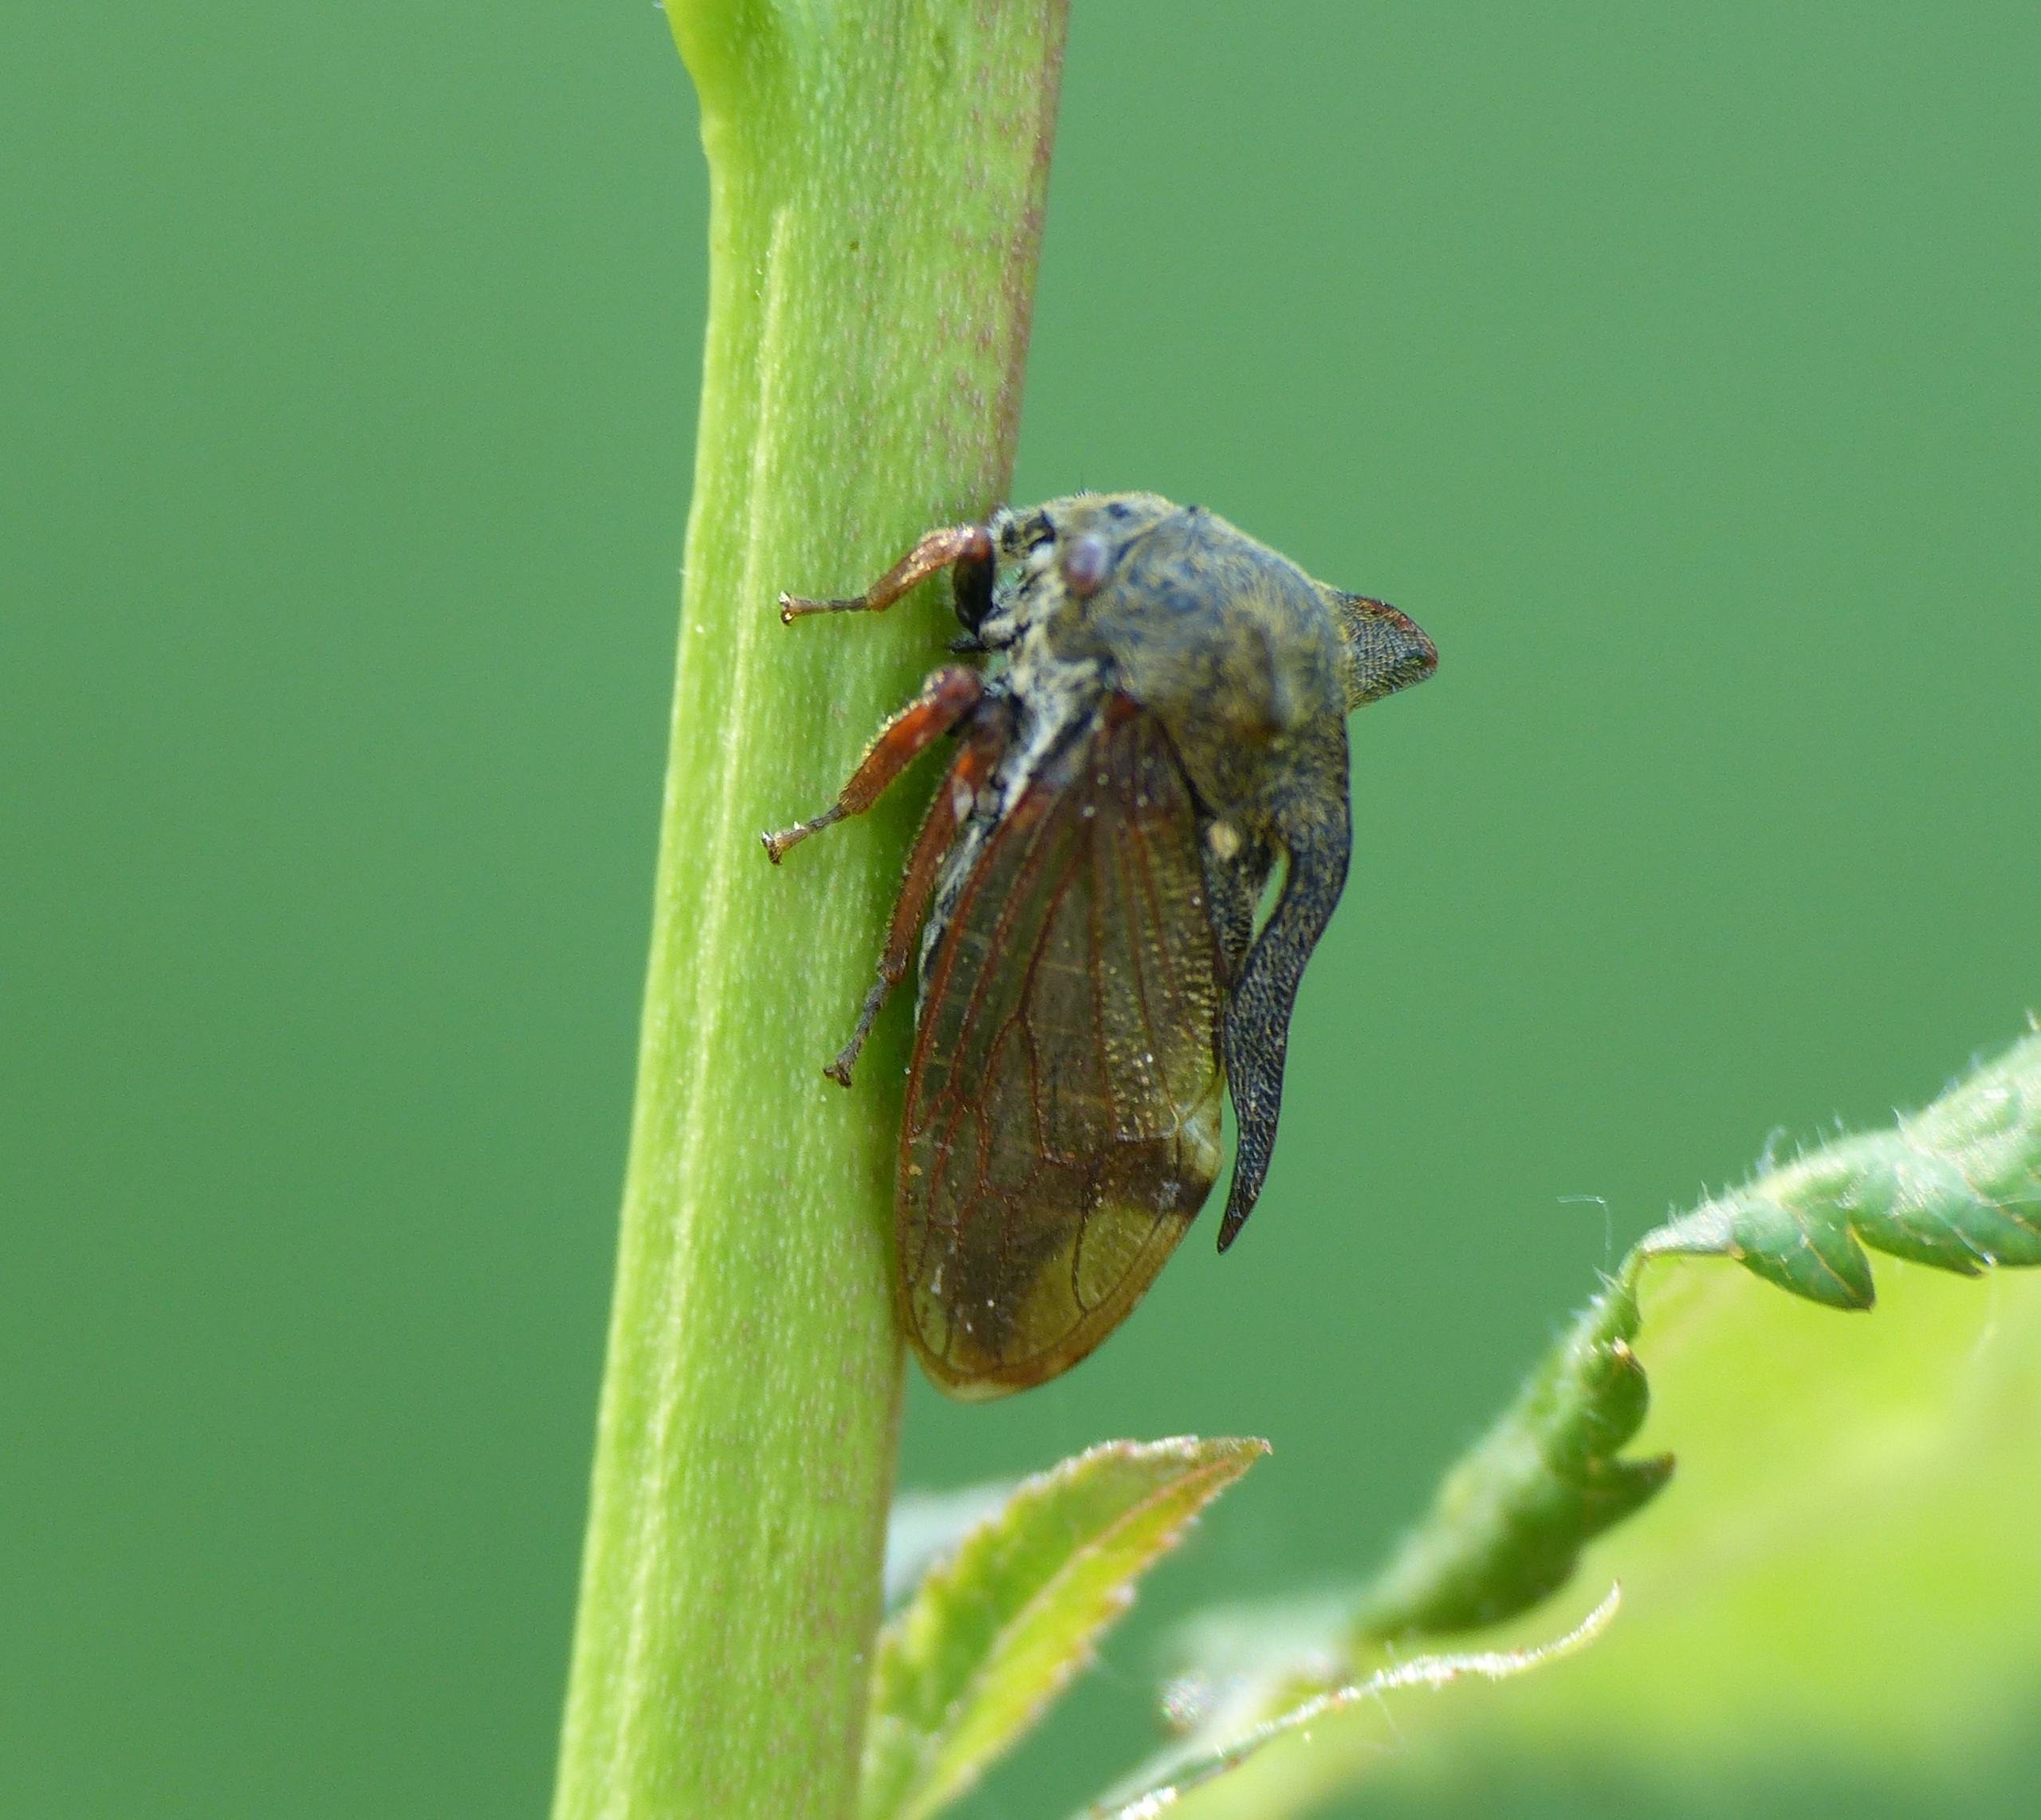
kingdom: Animalia
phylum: Arthropoda
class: Insecta
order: Hemiptera
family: Membracidae
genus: Centrotus
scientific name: Centrotus cornuta
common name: Horncikade
